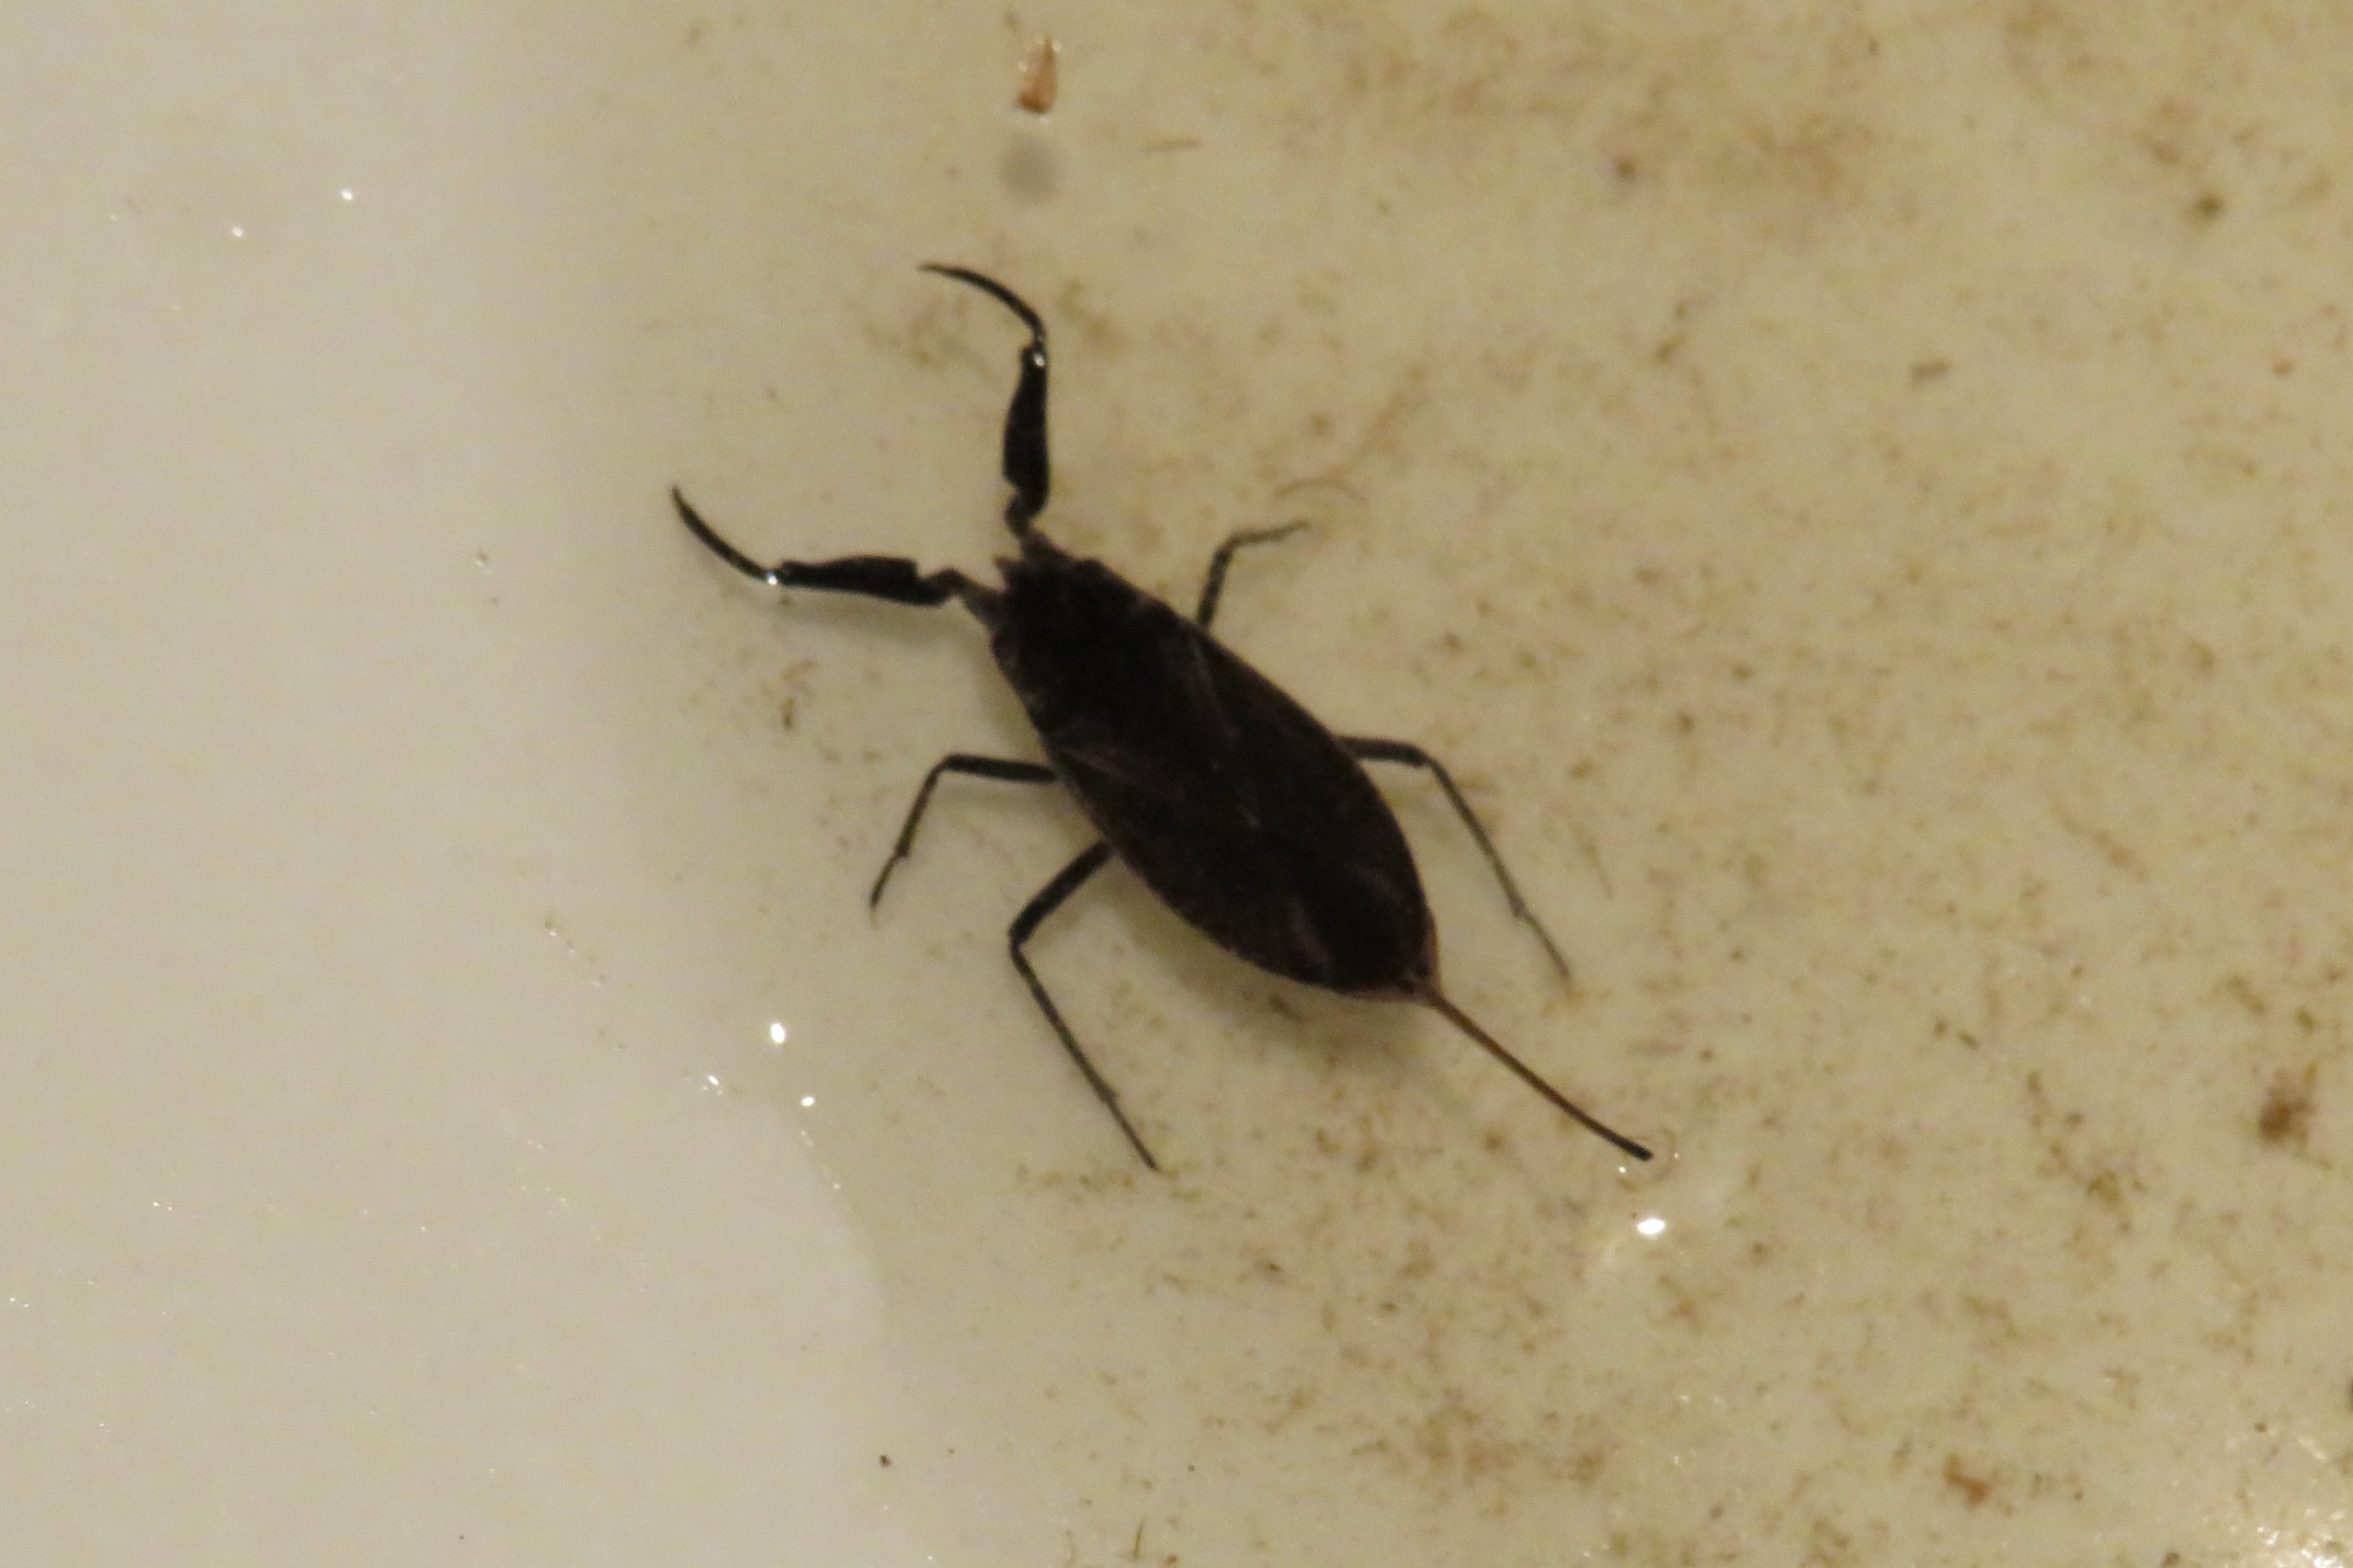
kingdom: Animalia
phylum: Arthropoda
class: Insecta
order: Hemiptera
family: Nepidae
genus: Nepa
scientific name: Nepa cinerea
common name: Skorpiontæge
